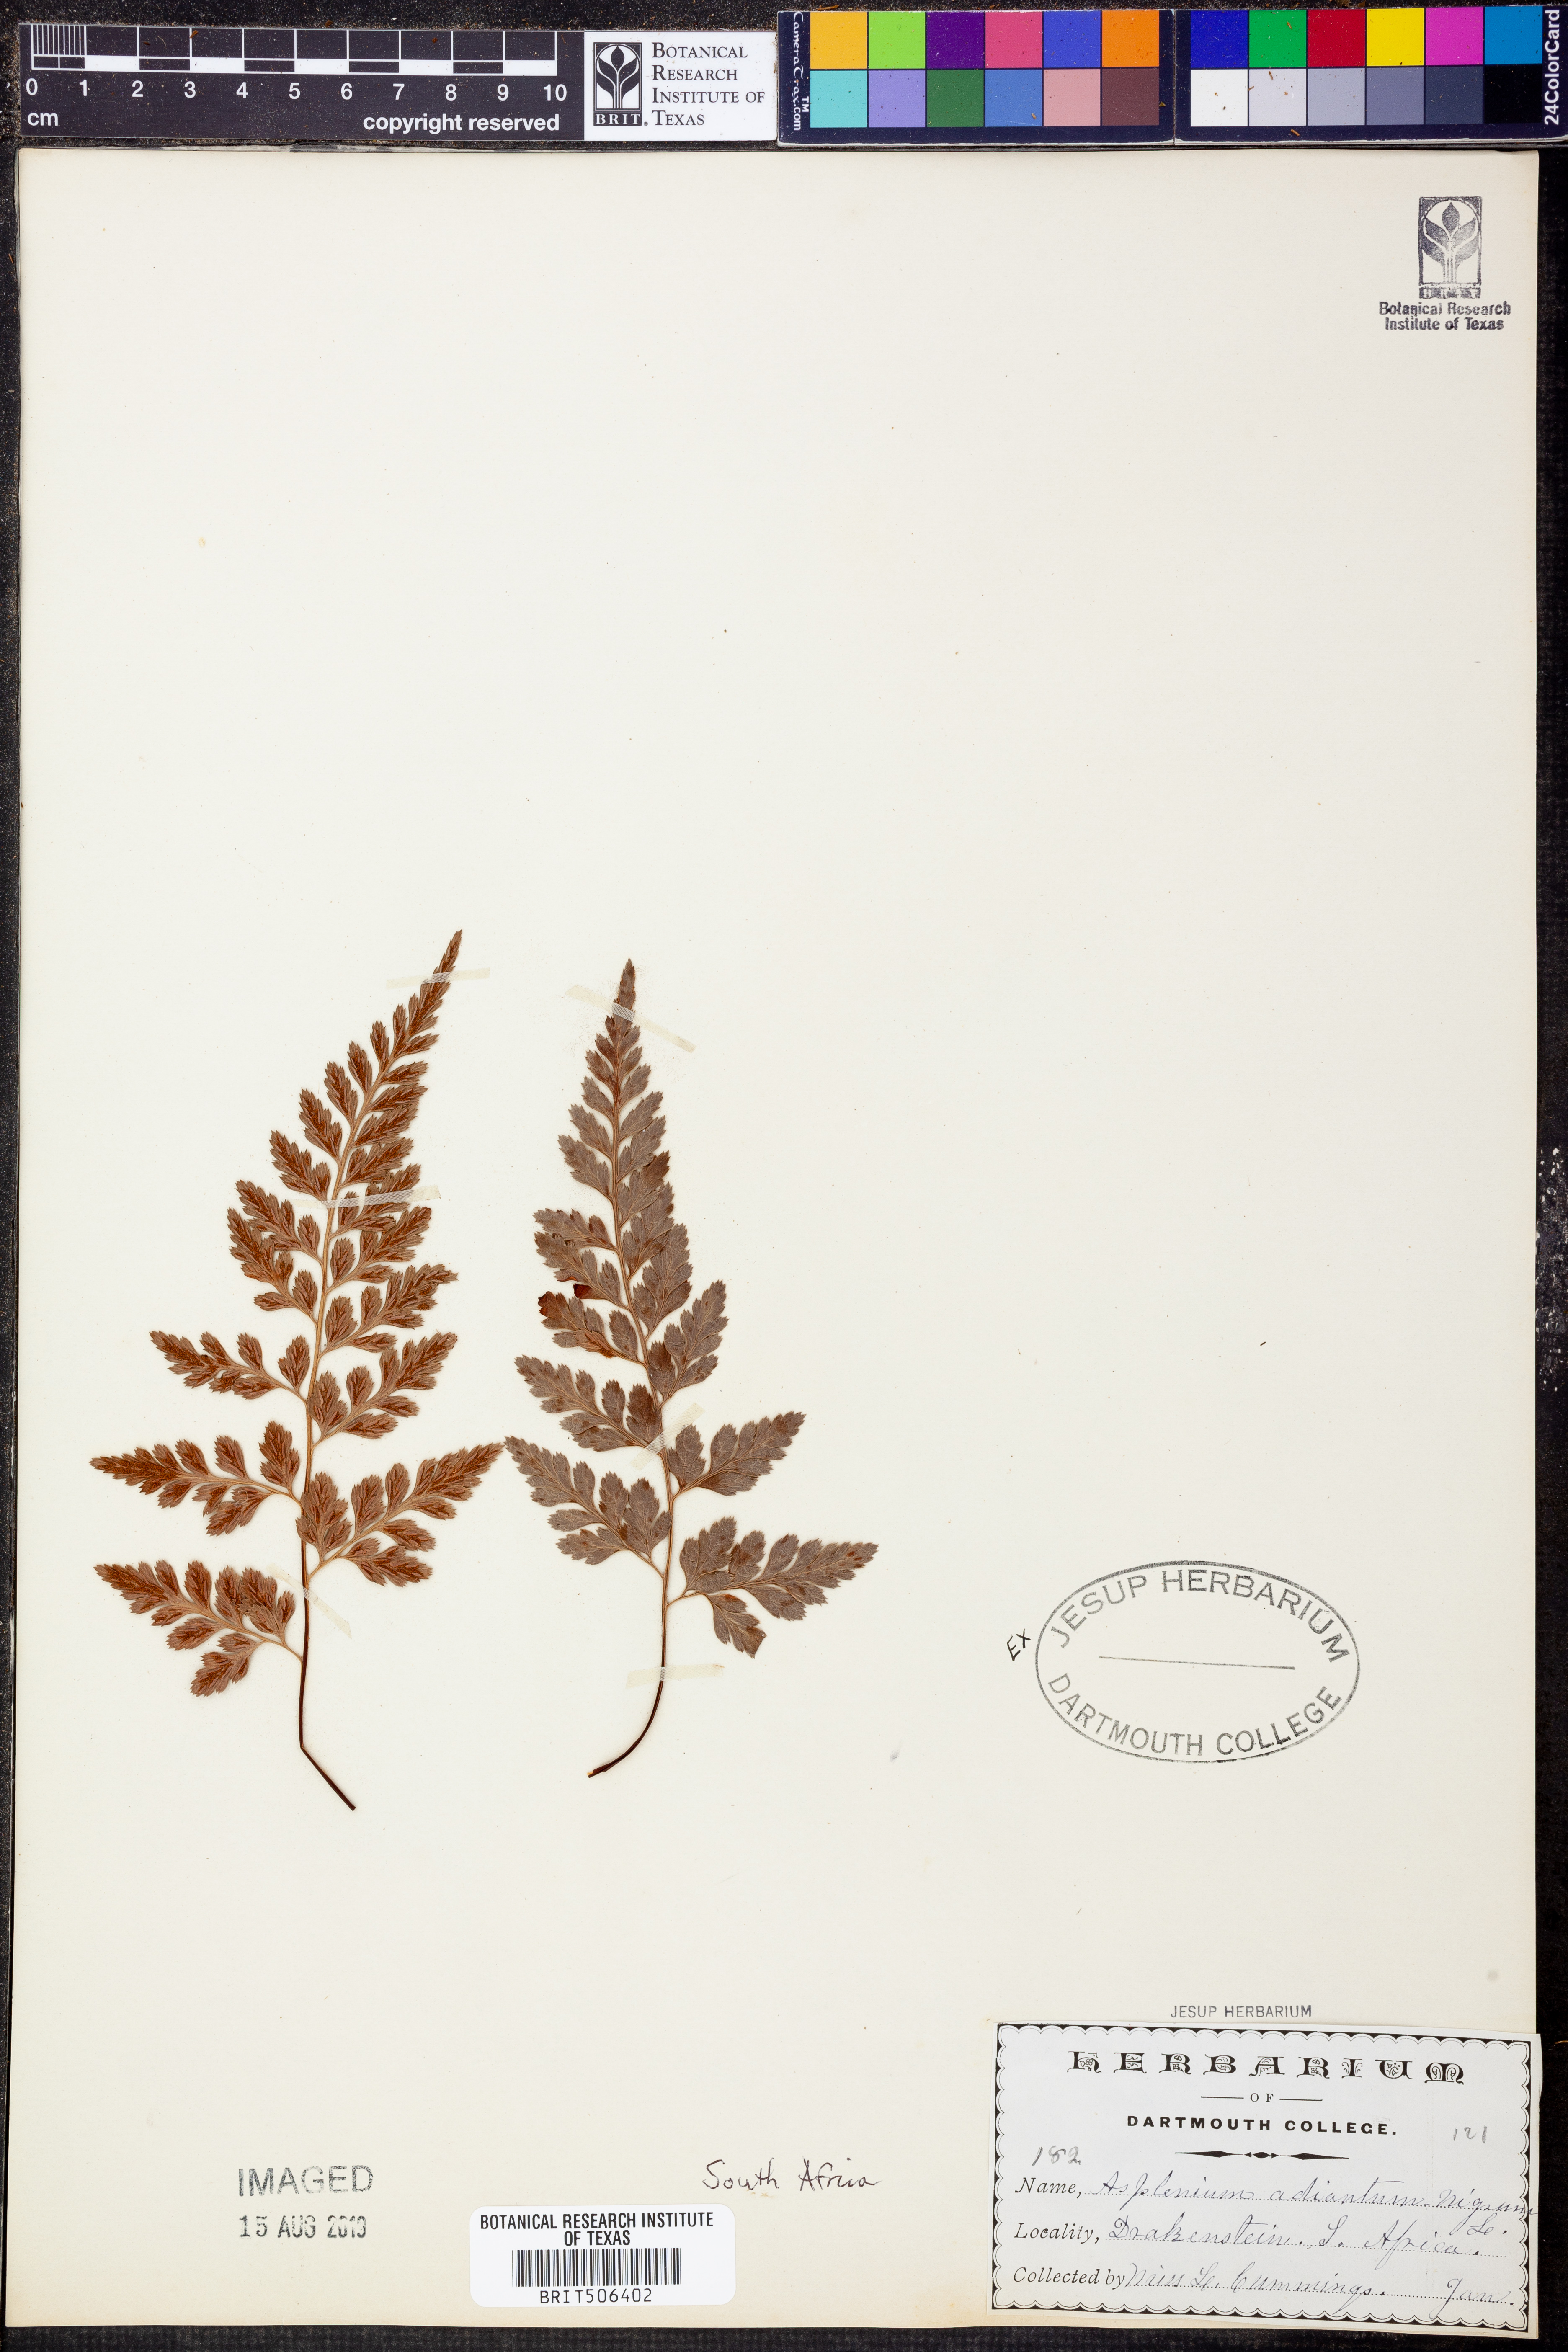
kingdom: Plantae
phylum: Tracheophyta
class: Polypodiopsida
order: Polypodiales
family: Aspleniaceae
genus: Asplenium
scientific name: Asplenium adiantum-nigrum
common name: Black spleenwort
